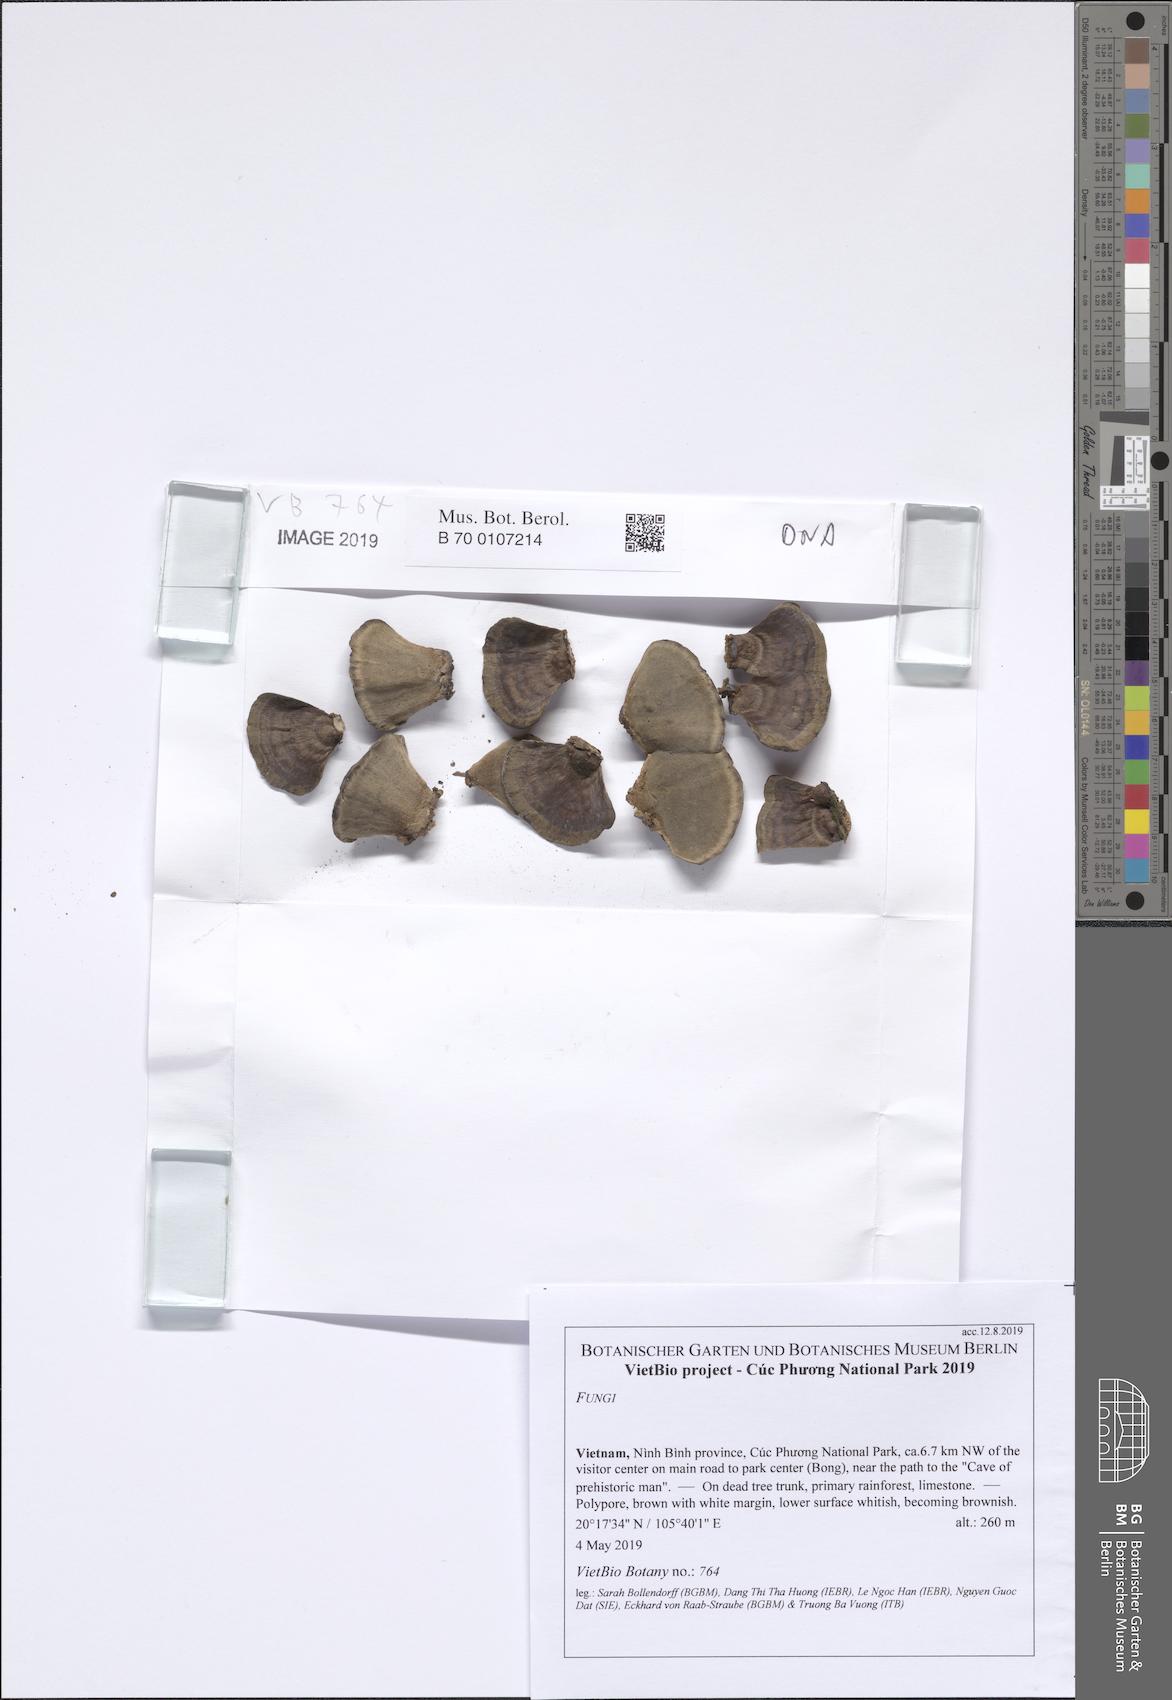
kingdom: Fungi
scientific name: Fungi
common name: Fungi
